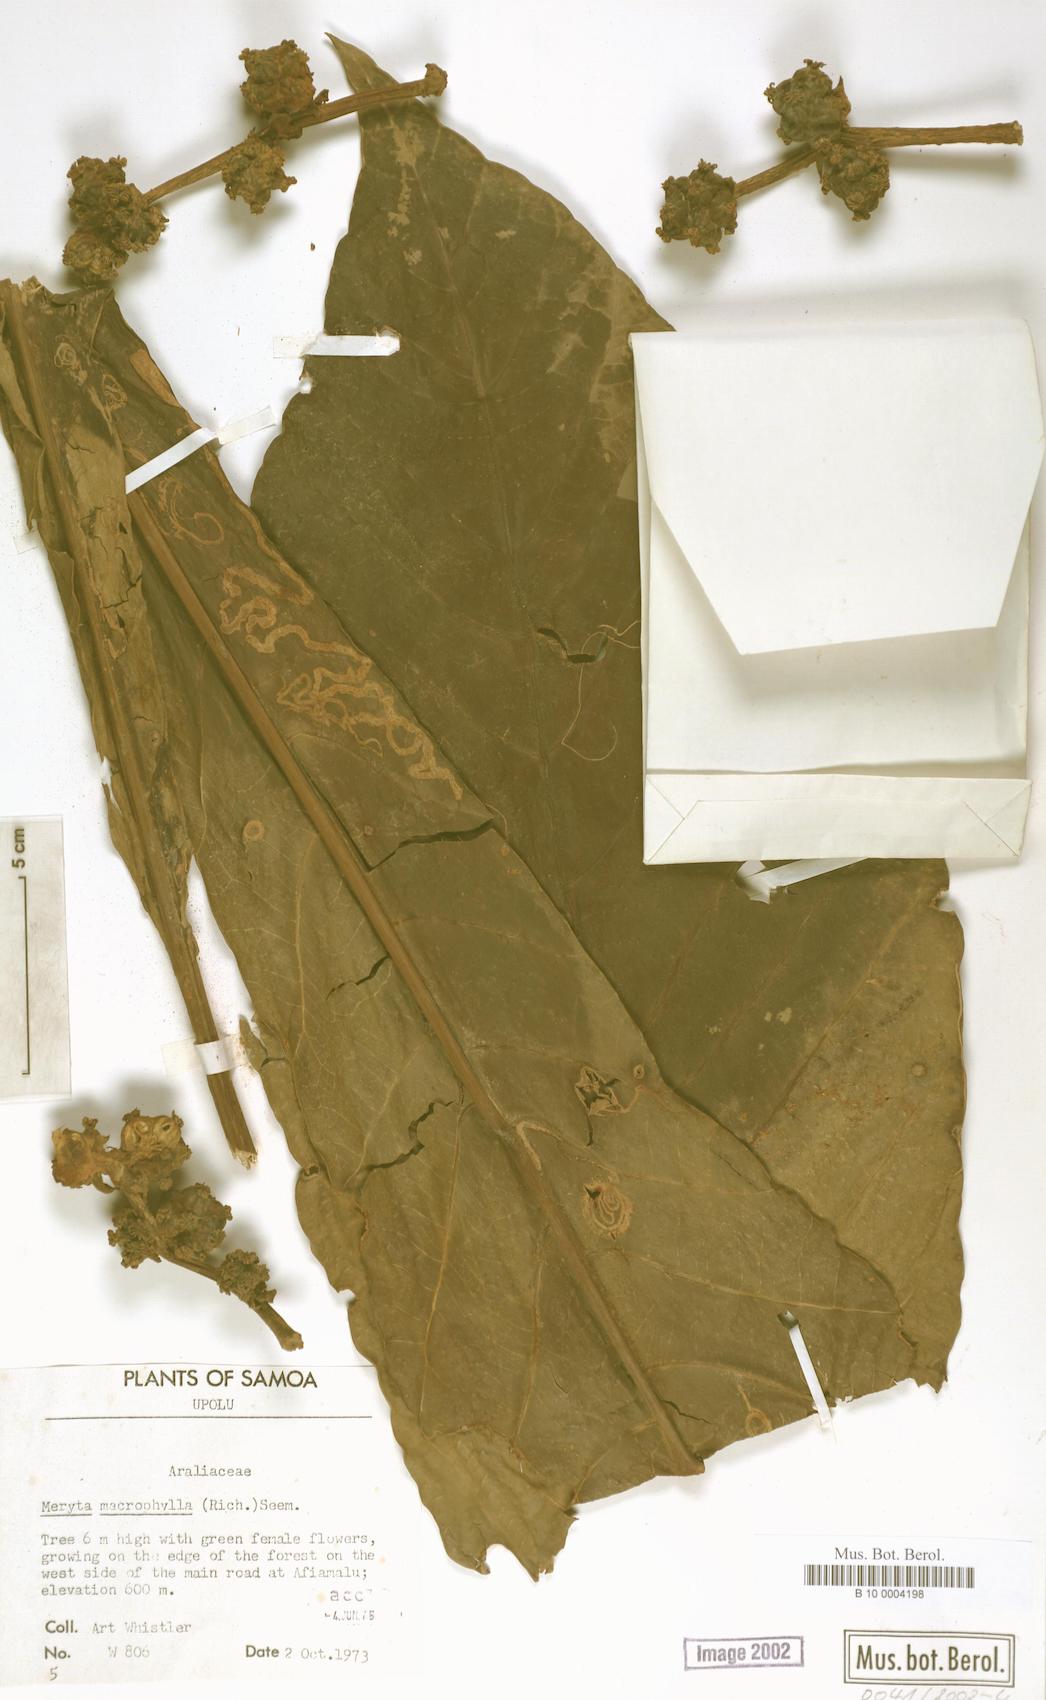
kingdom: Plantae
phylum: Tracheophyta
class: Magnoliopsida
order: Apiales
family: Araliaceae
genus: Meryta
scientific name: Meryta denhamii
